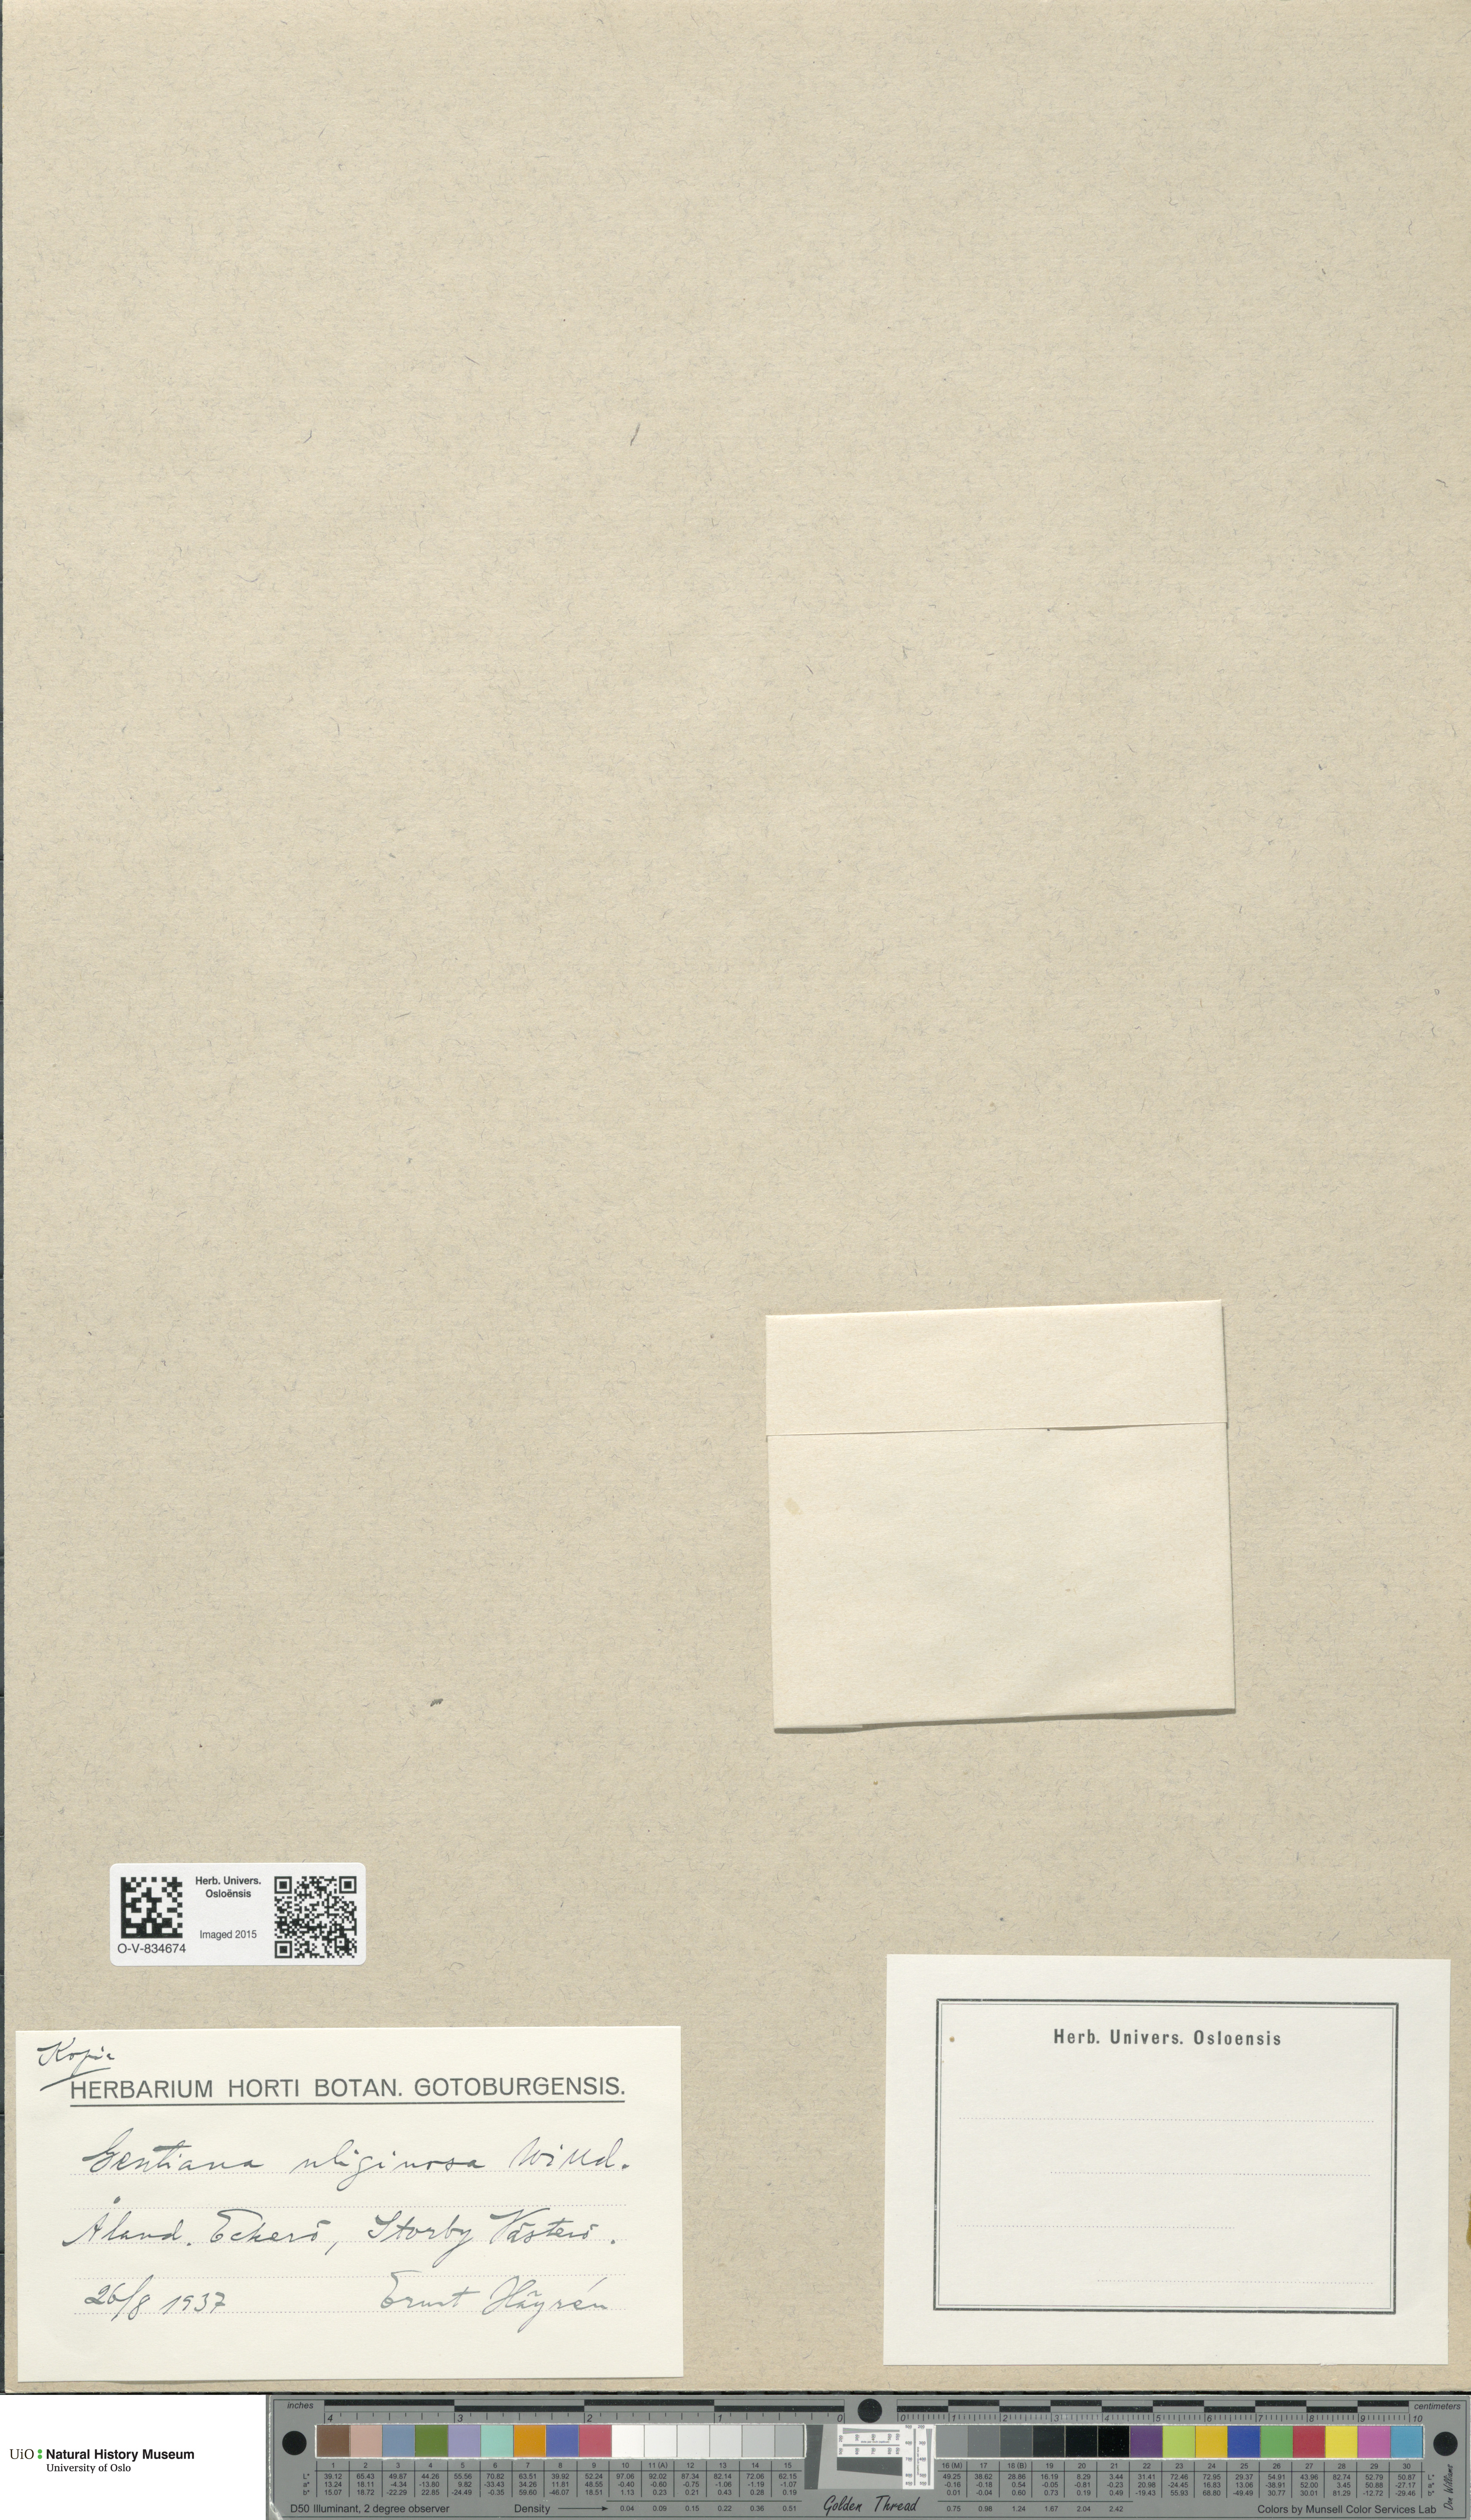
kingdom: Plantae
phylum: Tracheophyta
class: Magnoliopsida
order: Gentianales
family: Gentianaceae
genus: Gentianella
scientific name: Gentianella uliginosa
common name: Dune gentian
